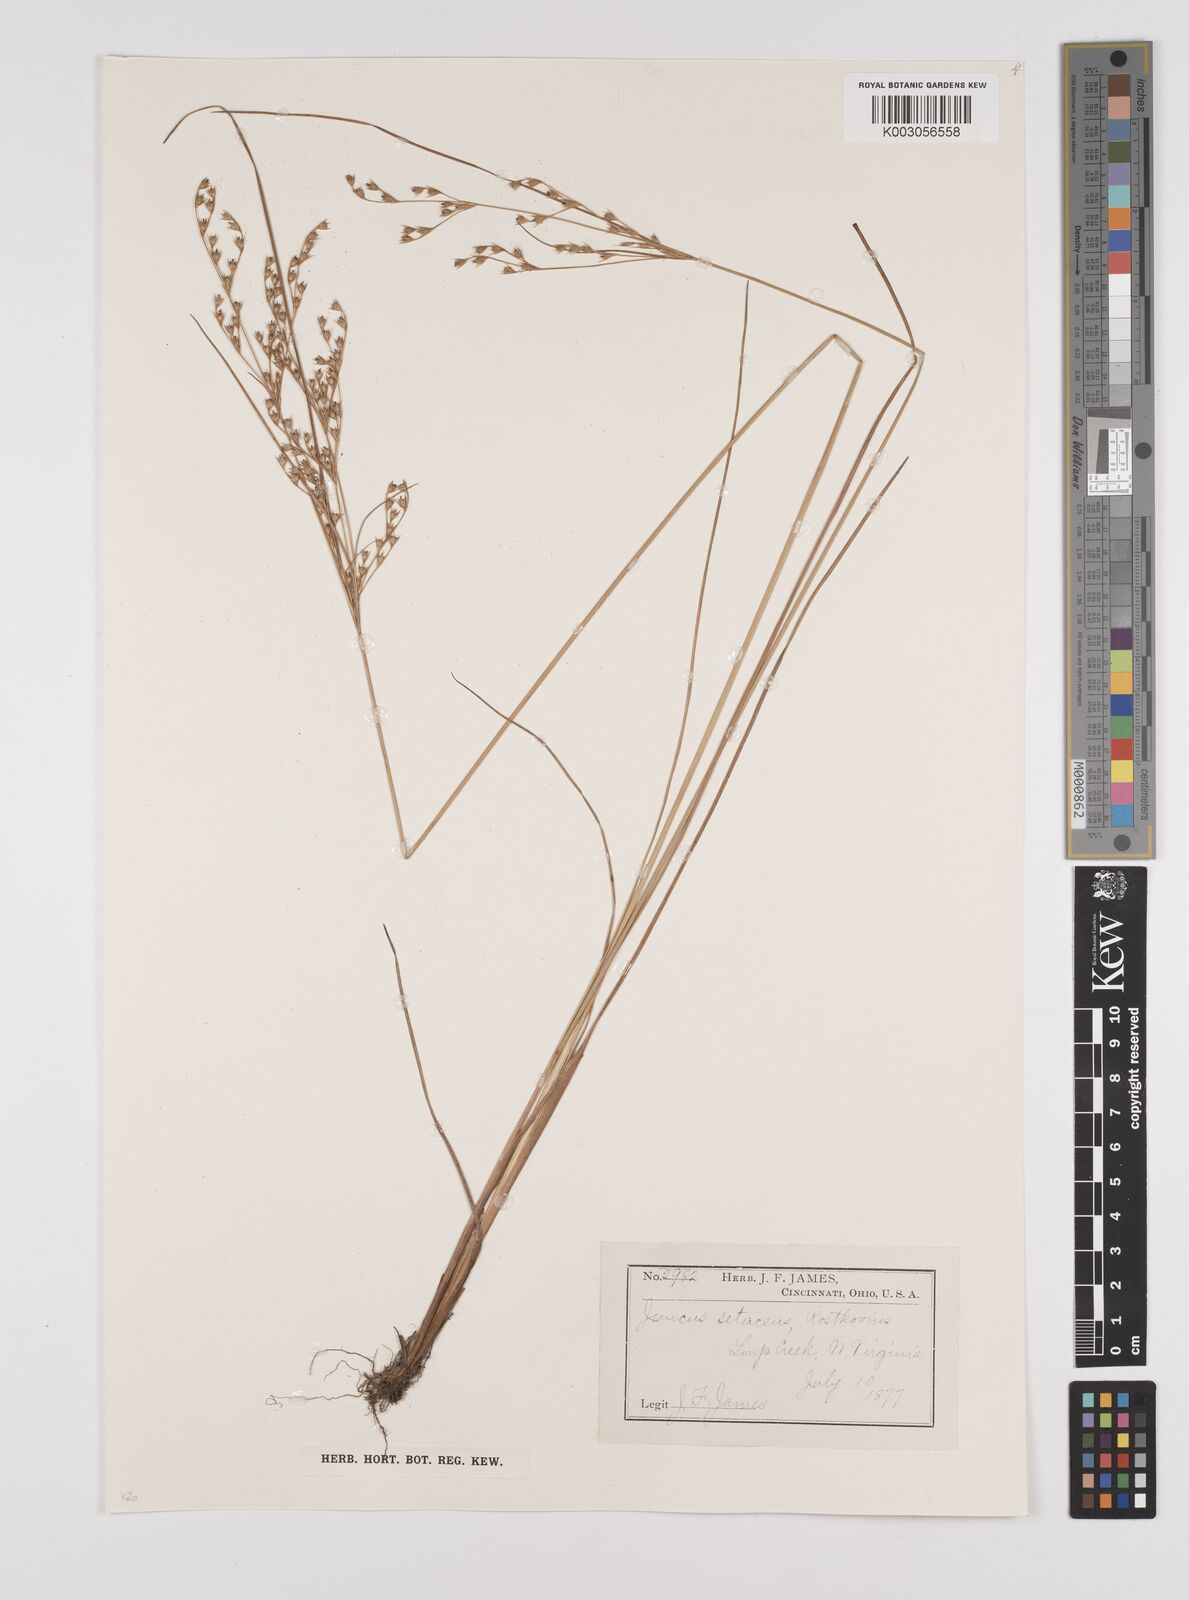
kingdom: Plantae
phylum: Tracheophyta
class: Liliopsida
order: Poales
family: Juncaceae
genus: Juncus
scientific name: Juncus balticus
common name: Baltic rush
